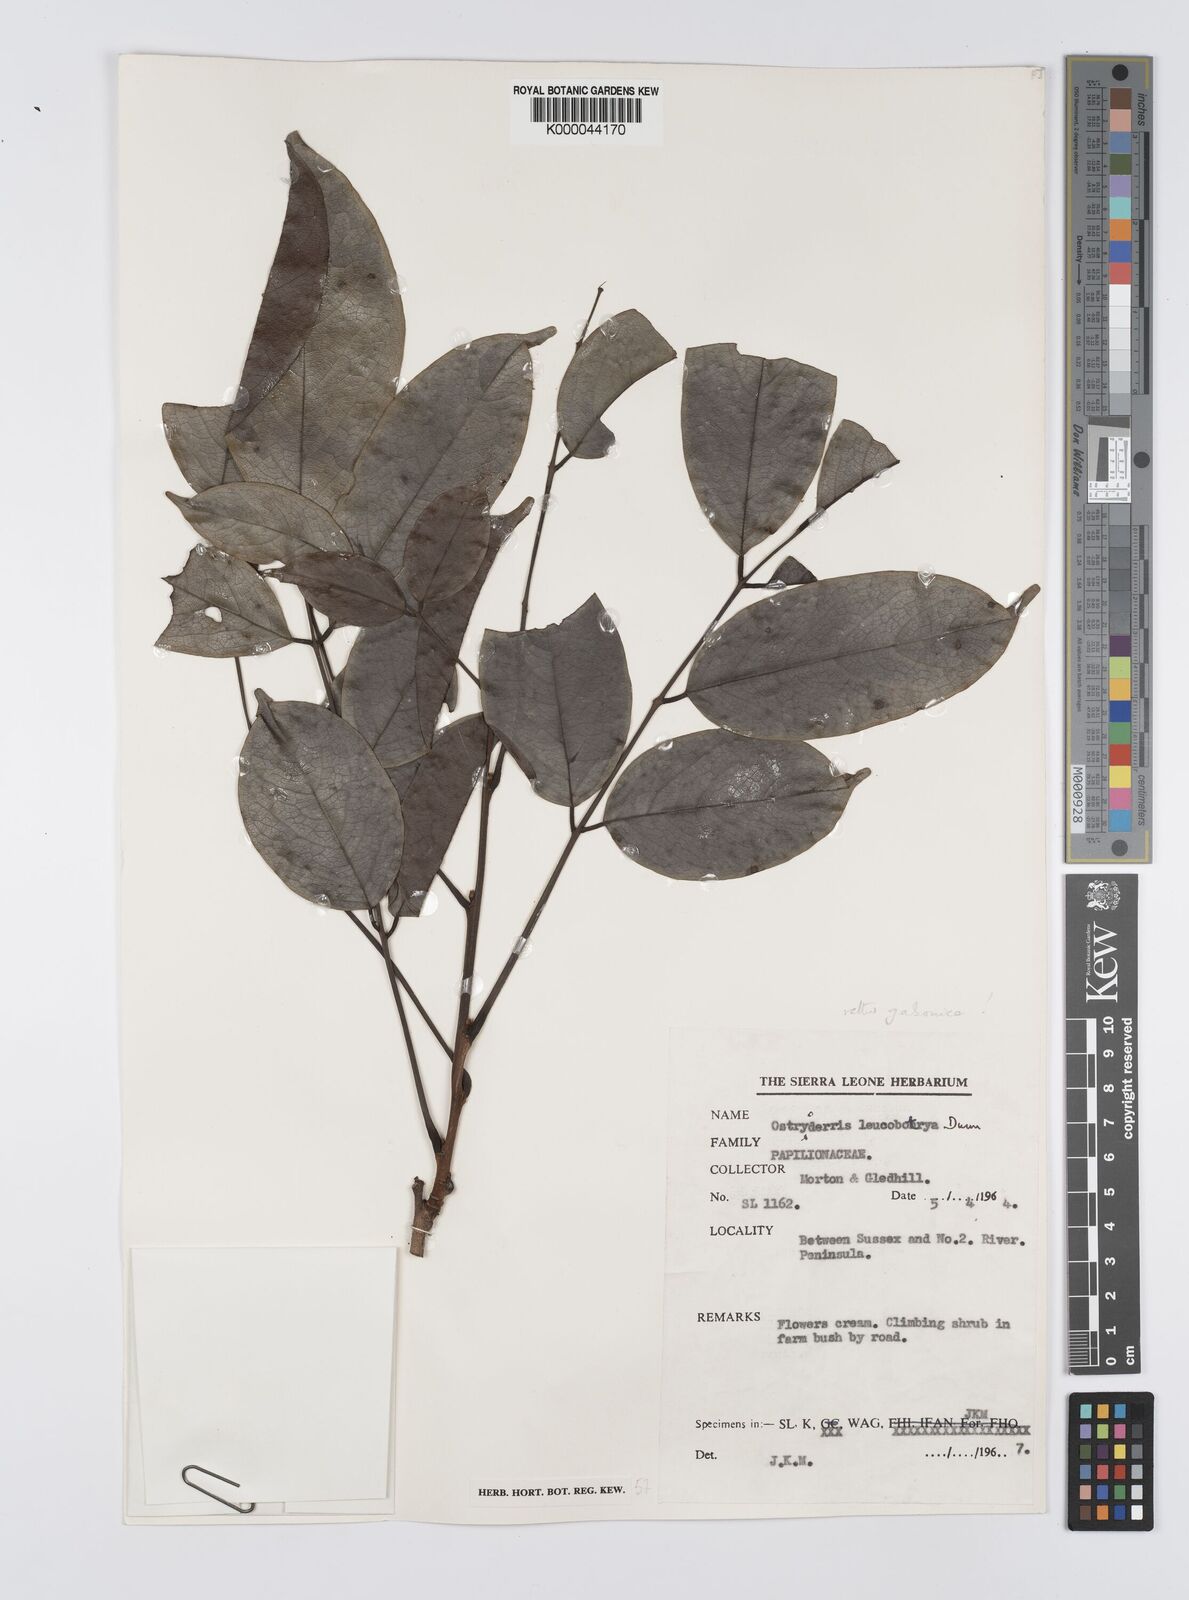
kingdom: Plantae
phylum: Tracheophyta
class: Magnoliopsida
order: Fabales
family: Fabaceae
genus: Aganope
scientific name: Aganope gabonica
